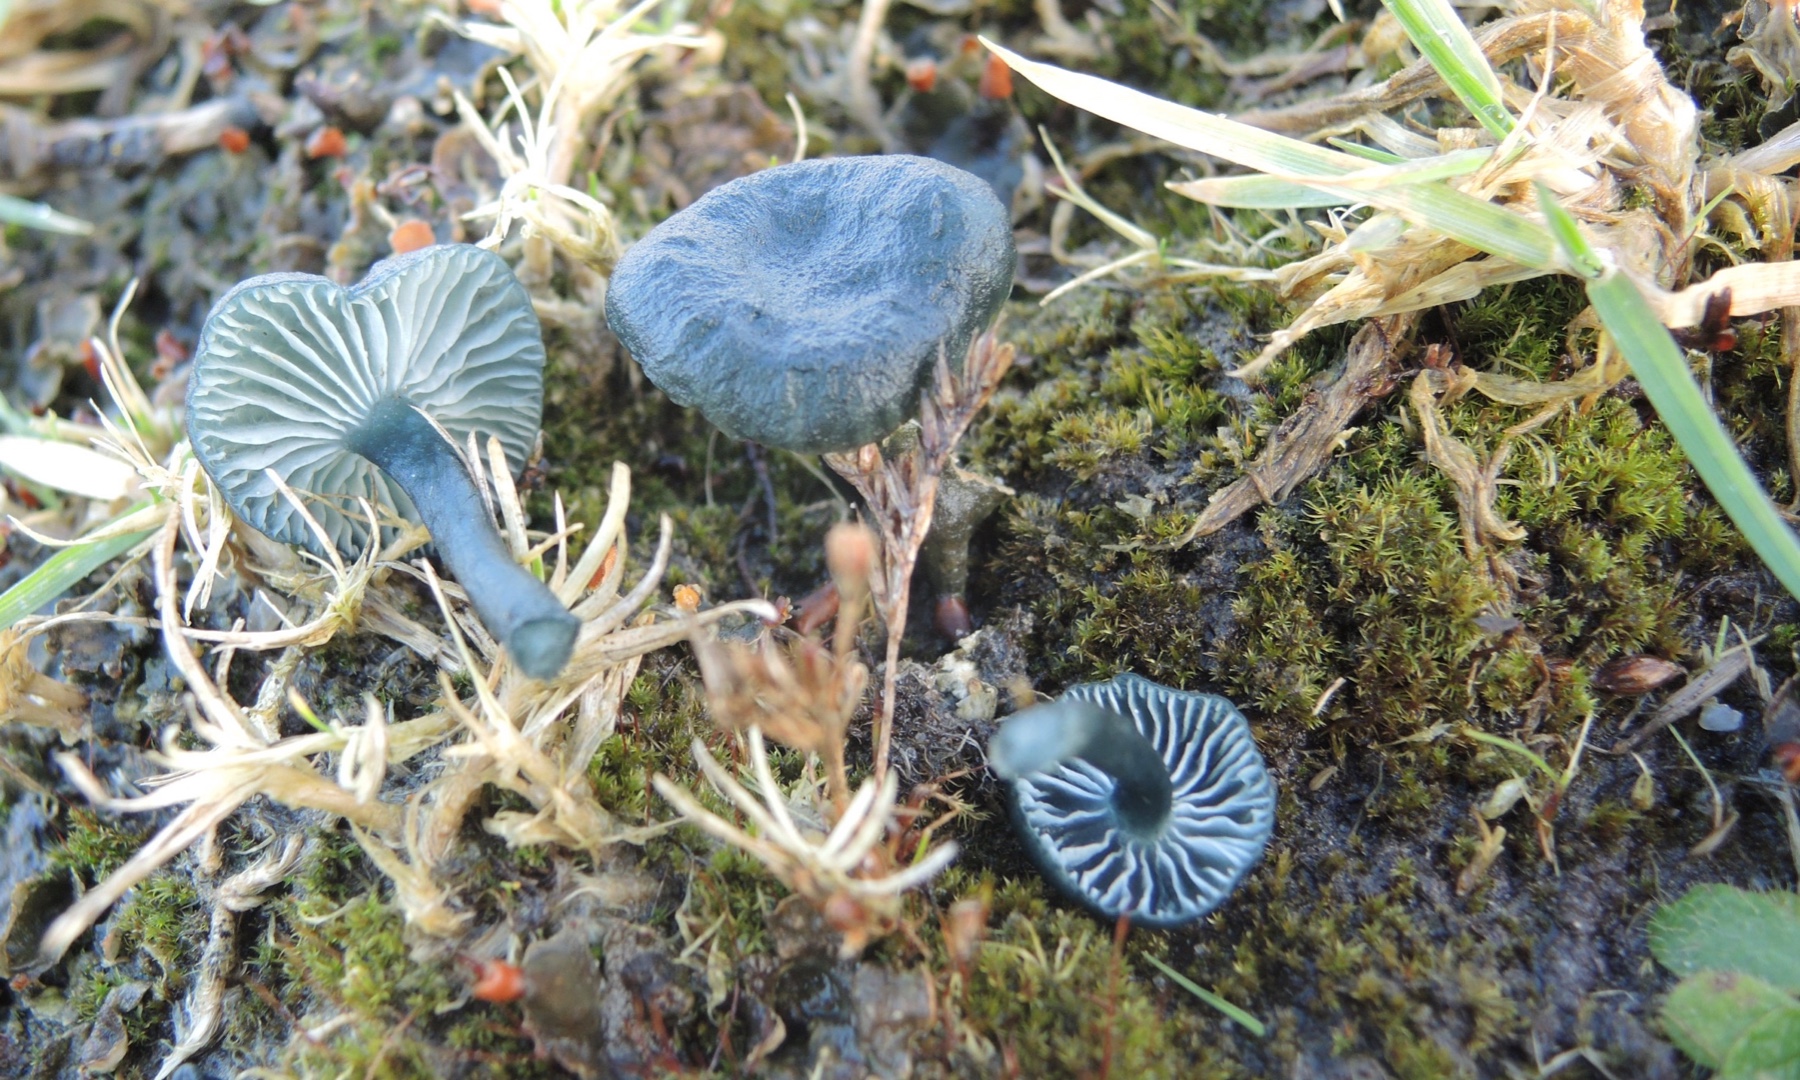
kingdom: Fungi
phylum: Basidiomycota
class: Agaricomycetes
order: Agaricales
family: Hygrophoraceae
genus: Arrhenia
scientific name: Arrhenia chlorocyanea
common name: blågrøn fontænehat
